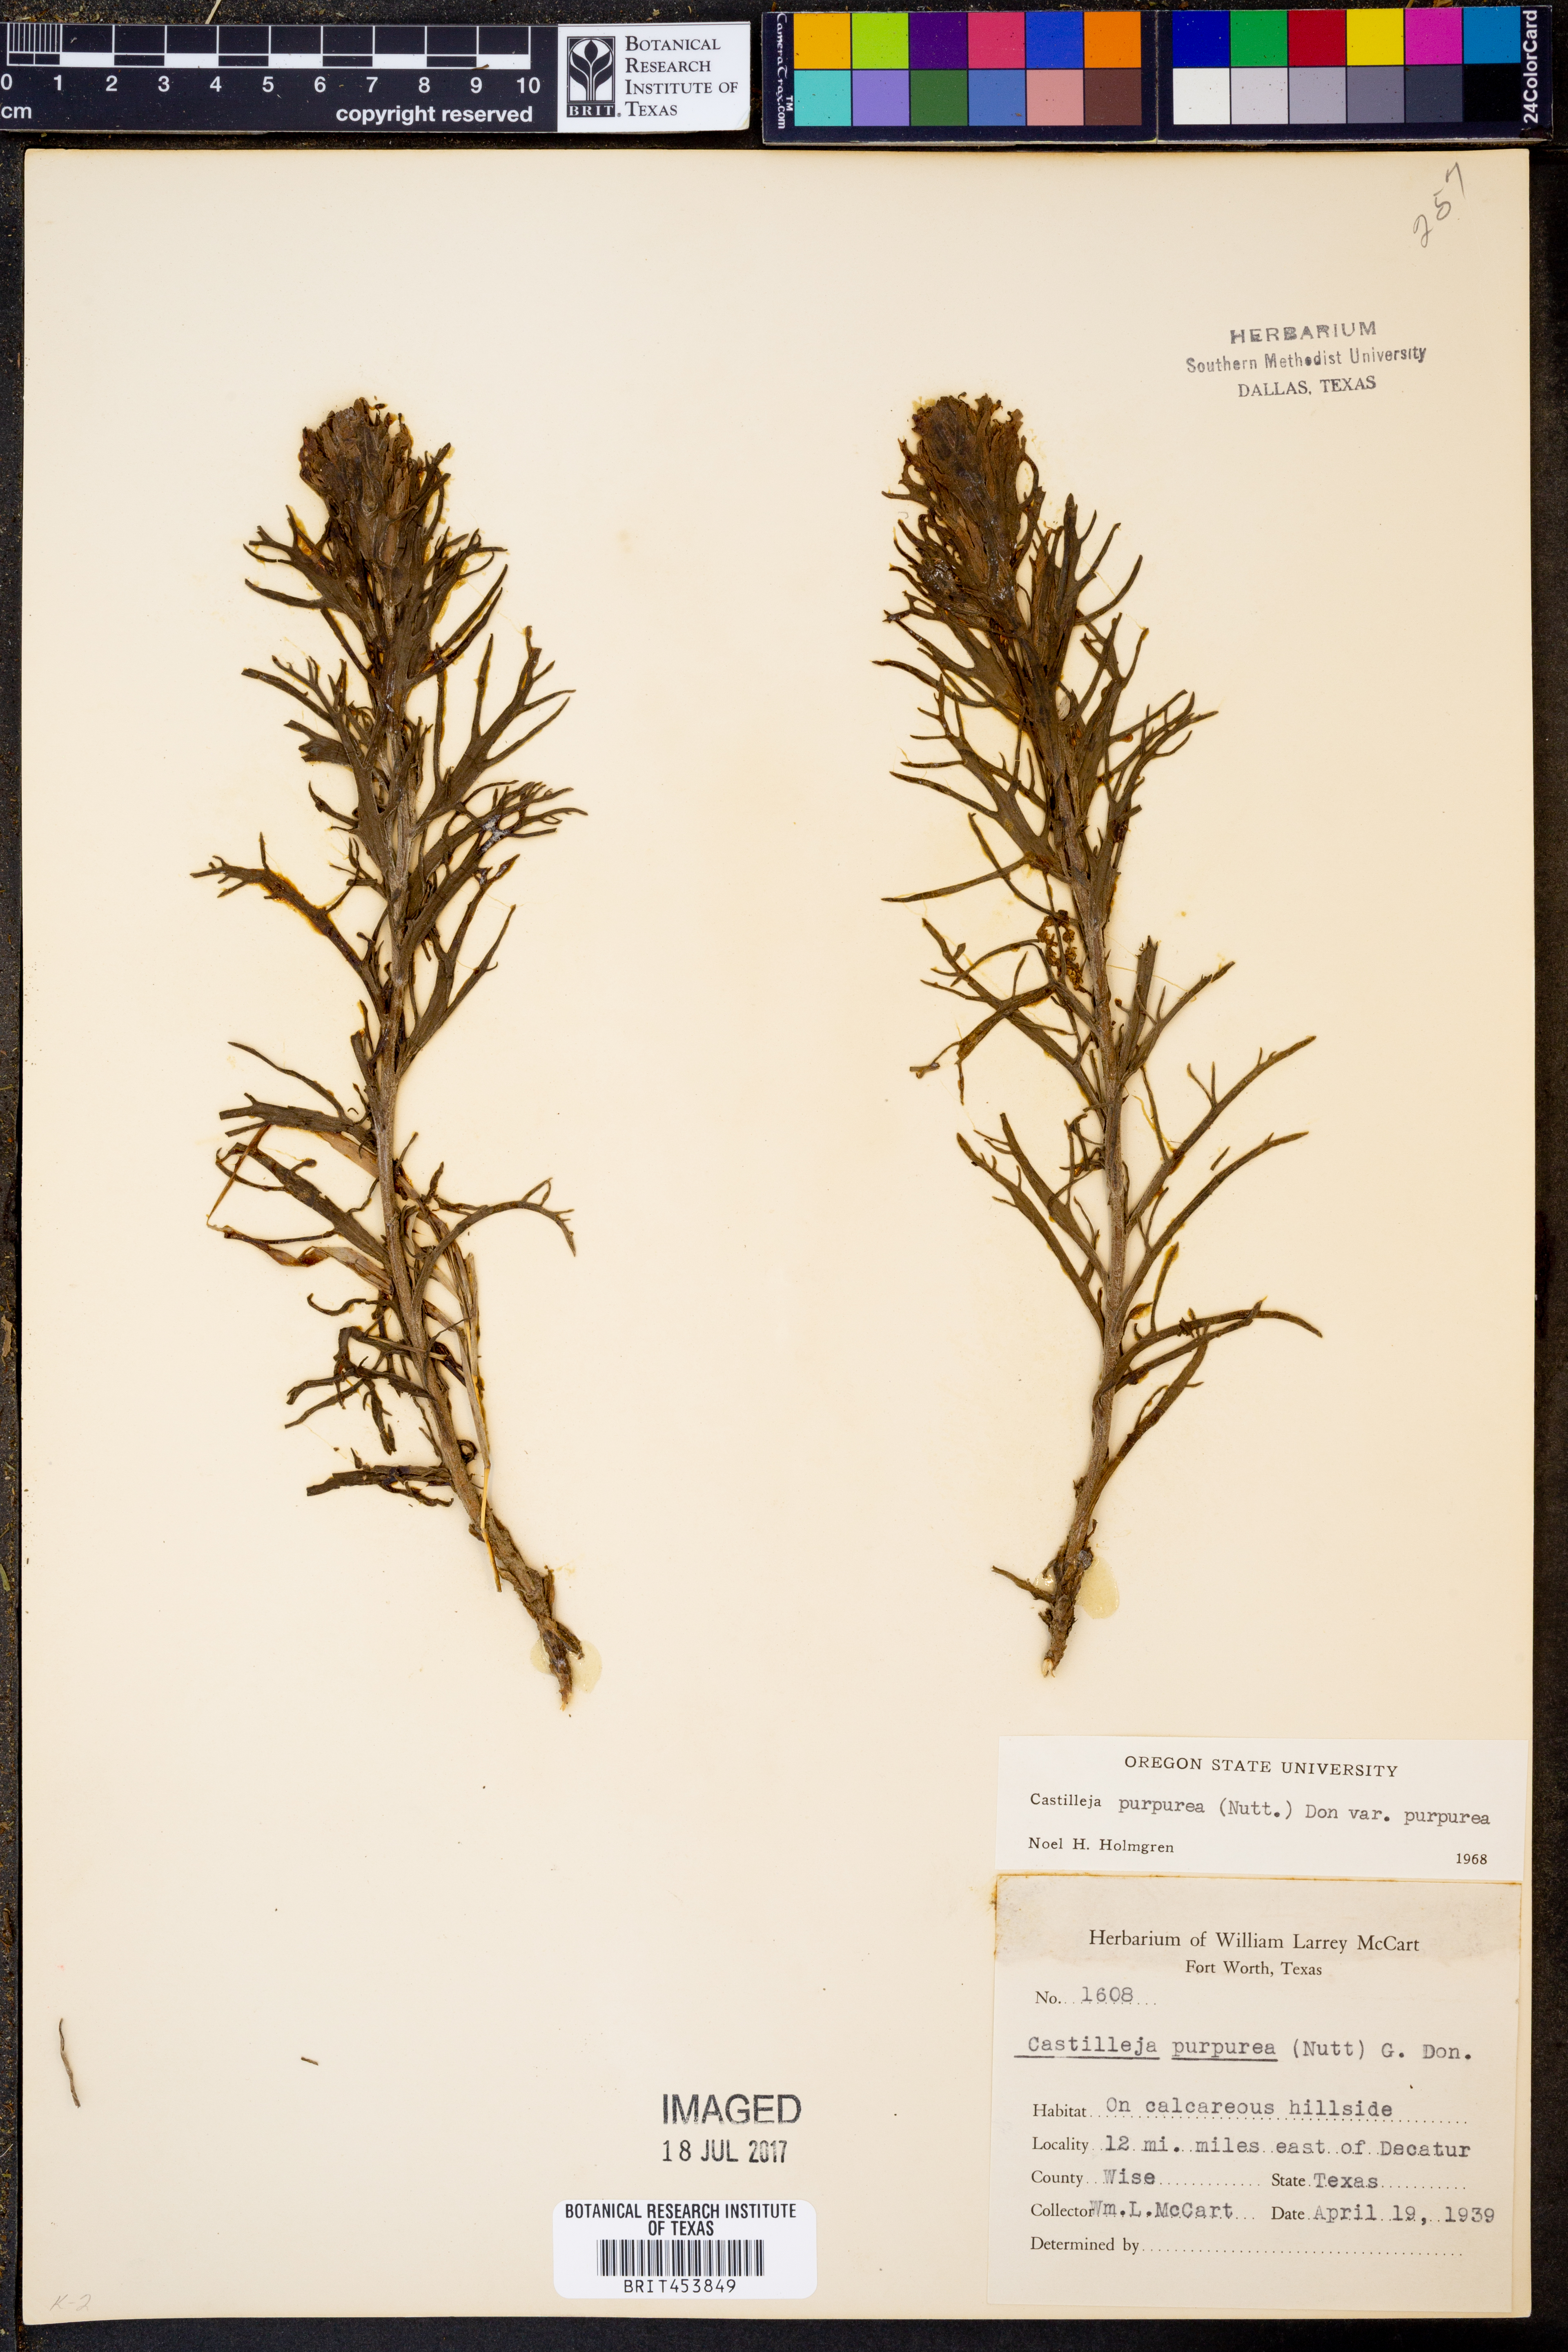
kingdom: Plantae
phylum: Tracheophyta
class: Magnoliopsida
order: Lamiales
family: Orobanchaceae
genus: Castilleja
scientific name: Castilleja purpurea
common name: Plains paintbrush
